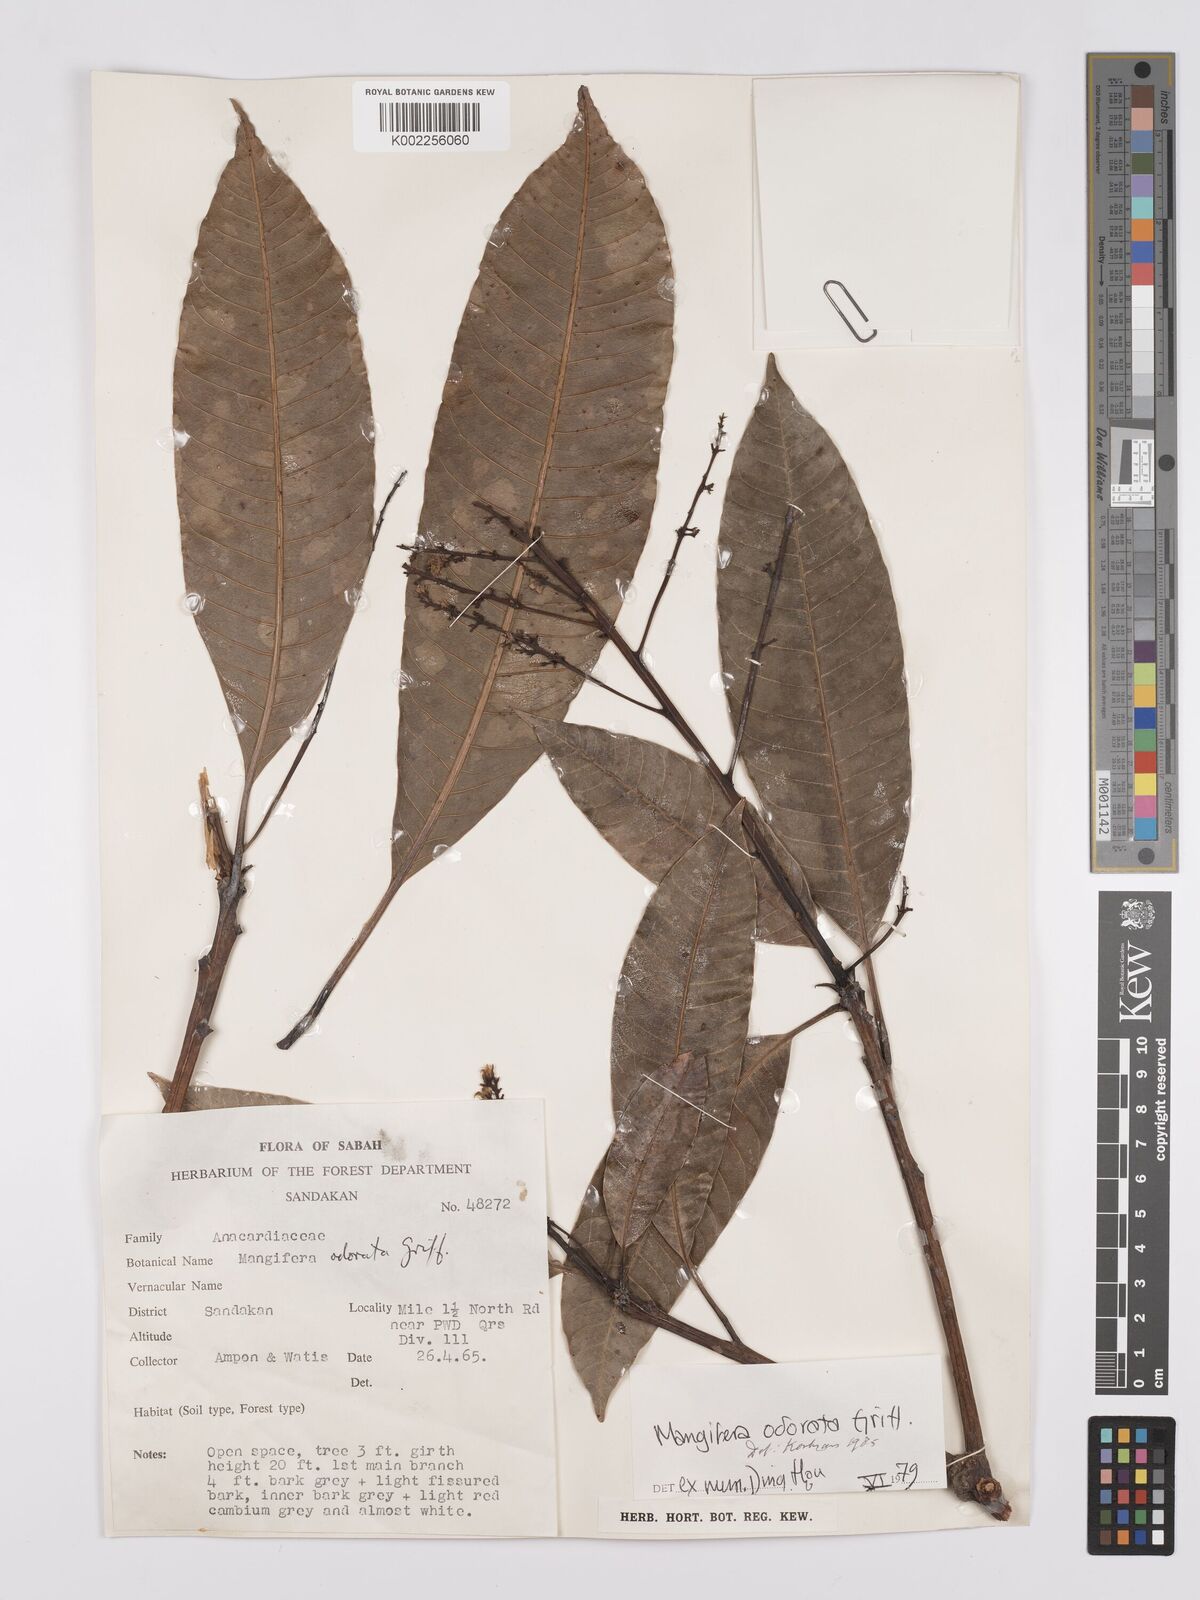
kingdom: Plantae
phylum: Tracheophyta
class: Magnoliopsida
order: Sapindales
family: Anacardiaceae
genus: Mangifera
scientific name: Mangifera odorata
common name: Saipan mango
